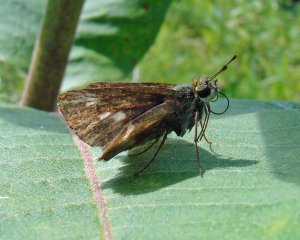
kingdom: Animalia
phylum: Arthropoda
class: Insecta
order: Lepidoptera
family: Hesperiidae
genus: Polites
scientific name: Polites egeremet
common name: Northern Broken-Dash
